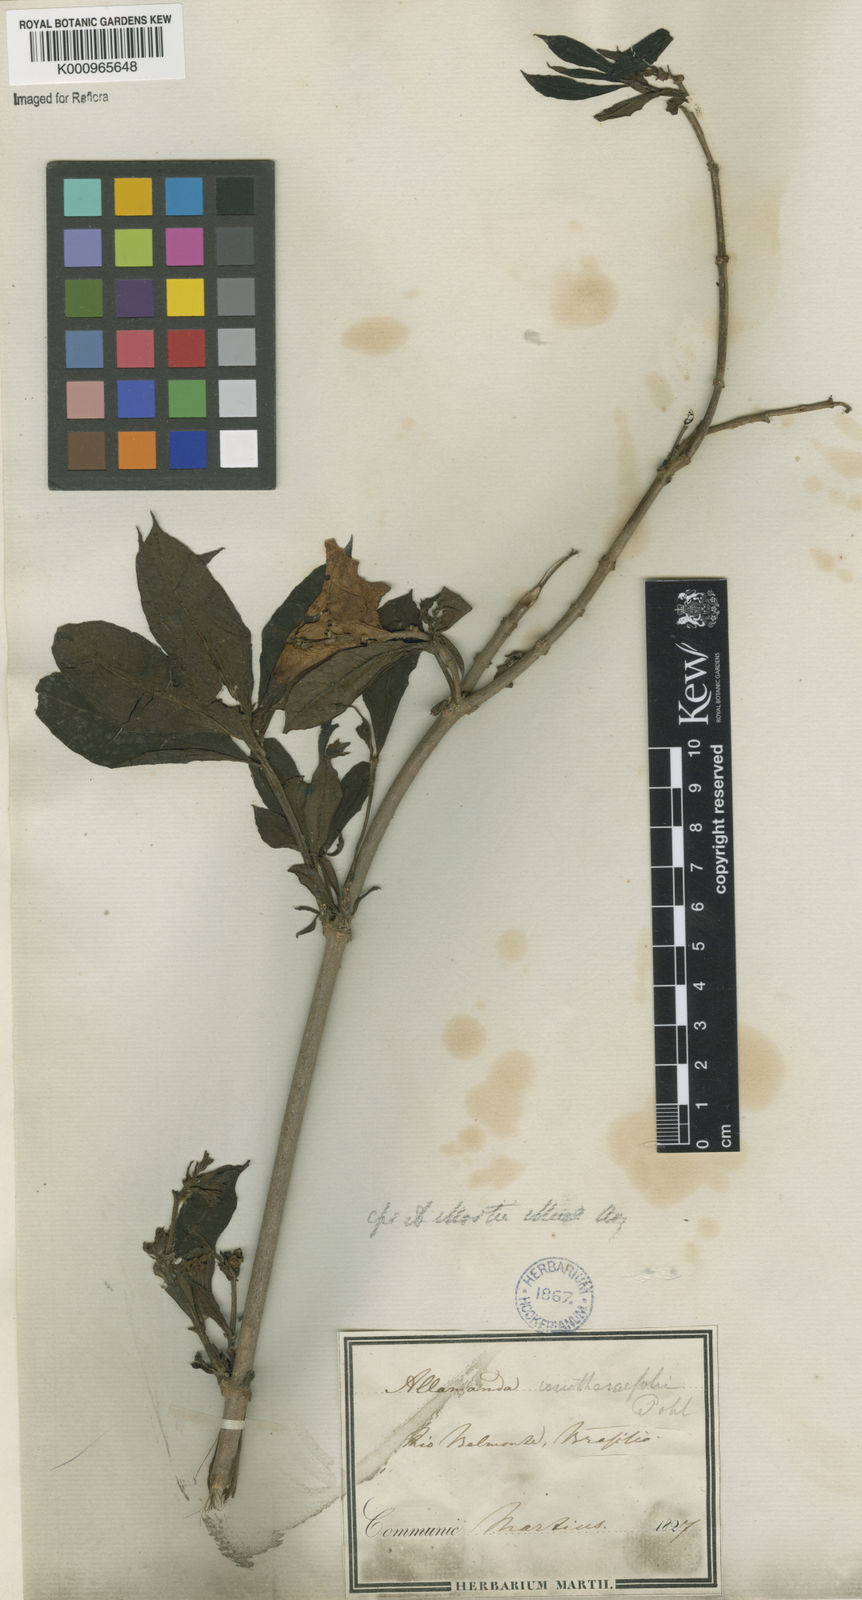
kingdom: Plantae
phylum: Tracheophyta
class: Magnoliopsida
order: Gentianales
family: Apocynaceae
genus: Allamanda
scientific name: Allamanda
